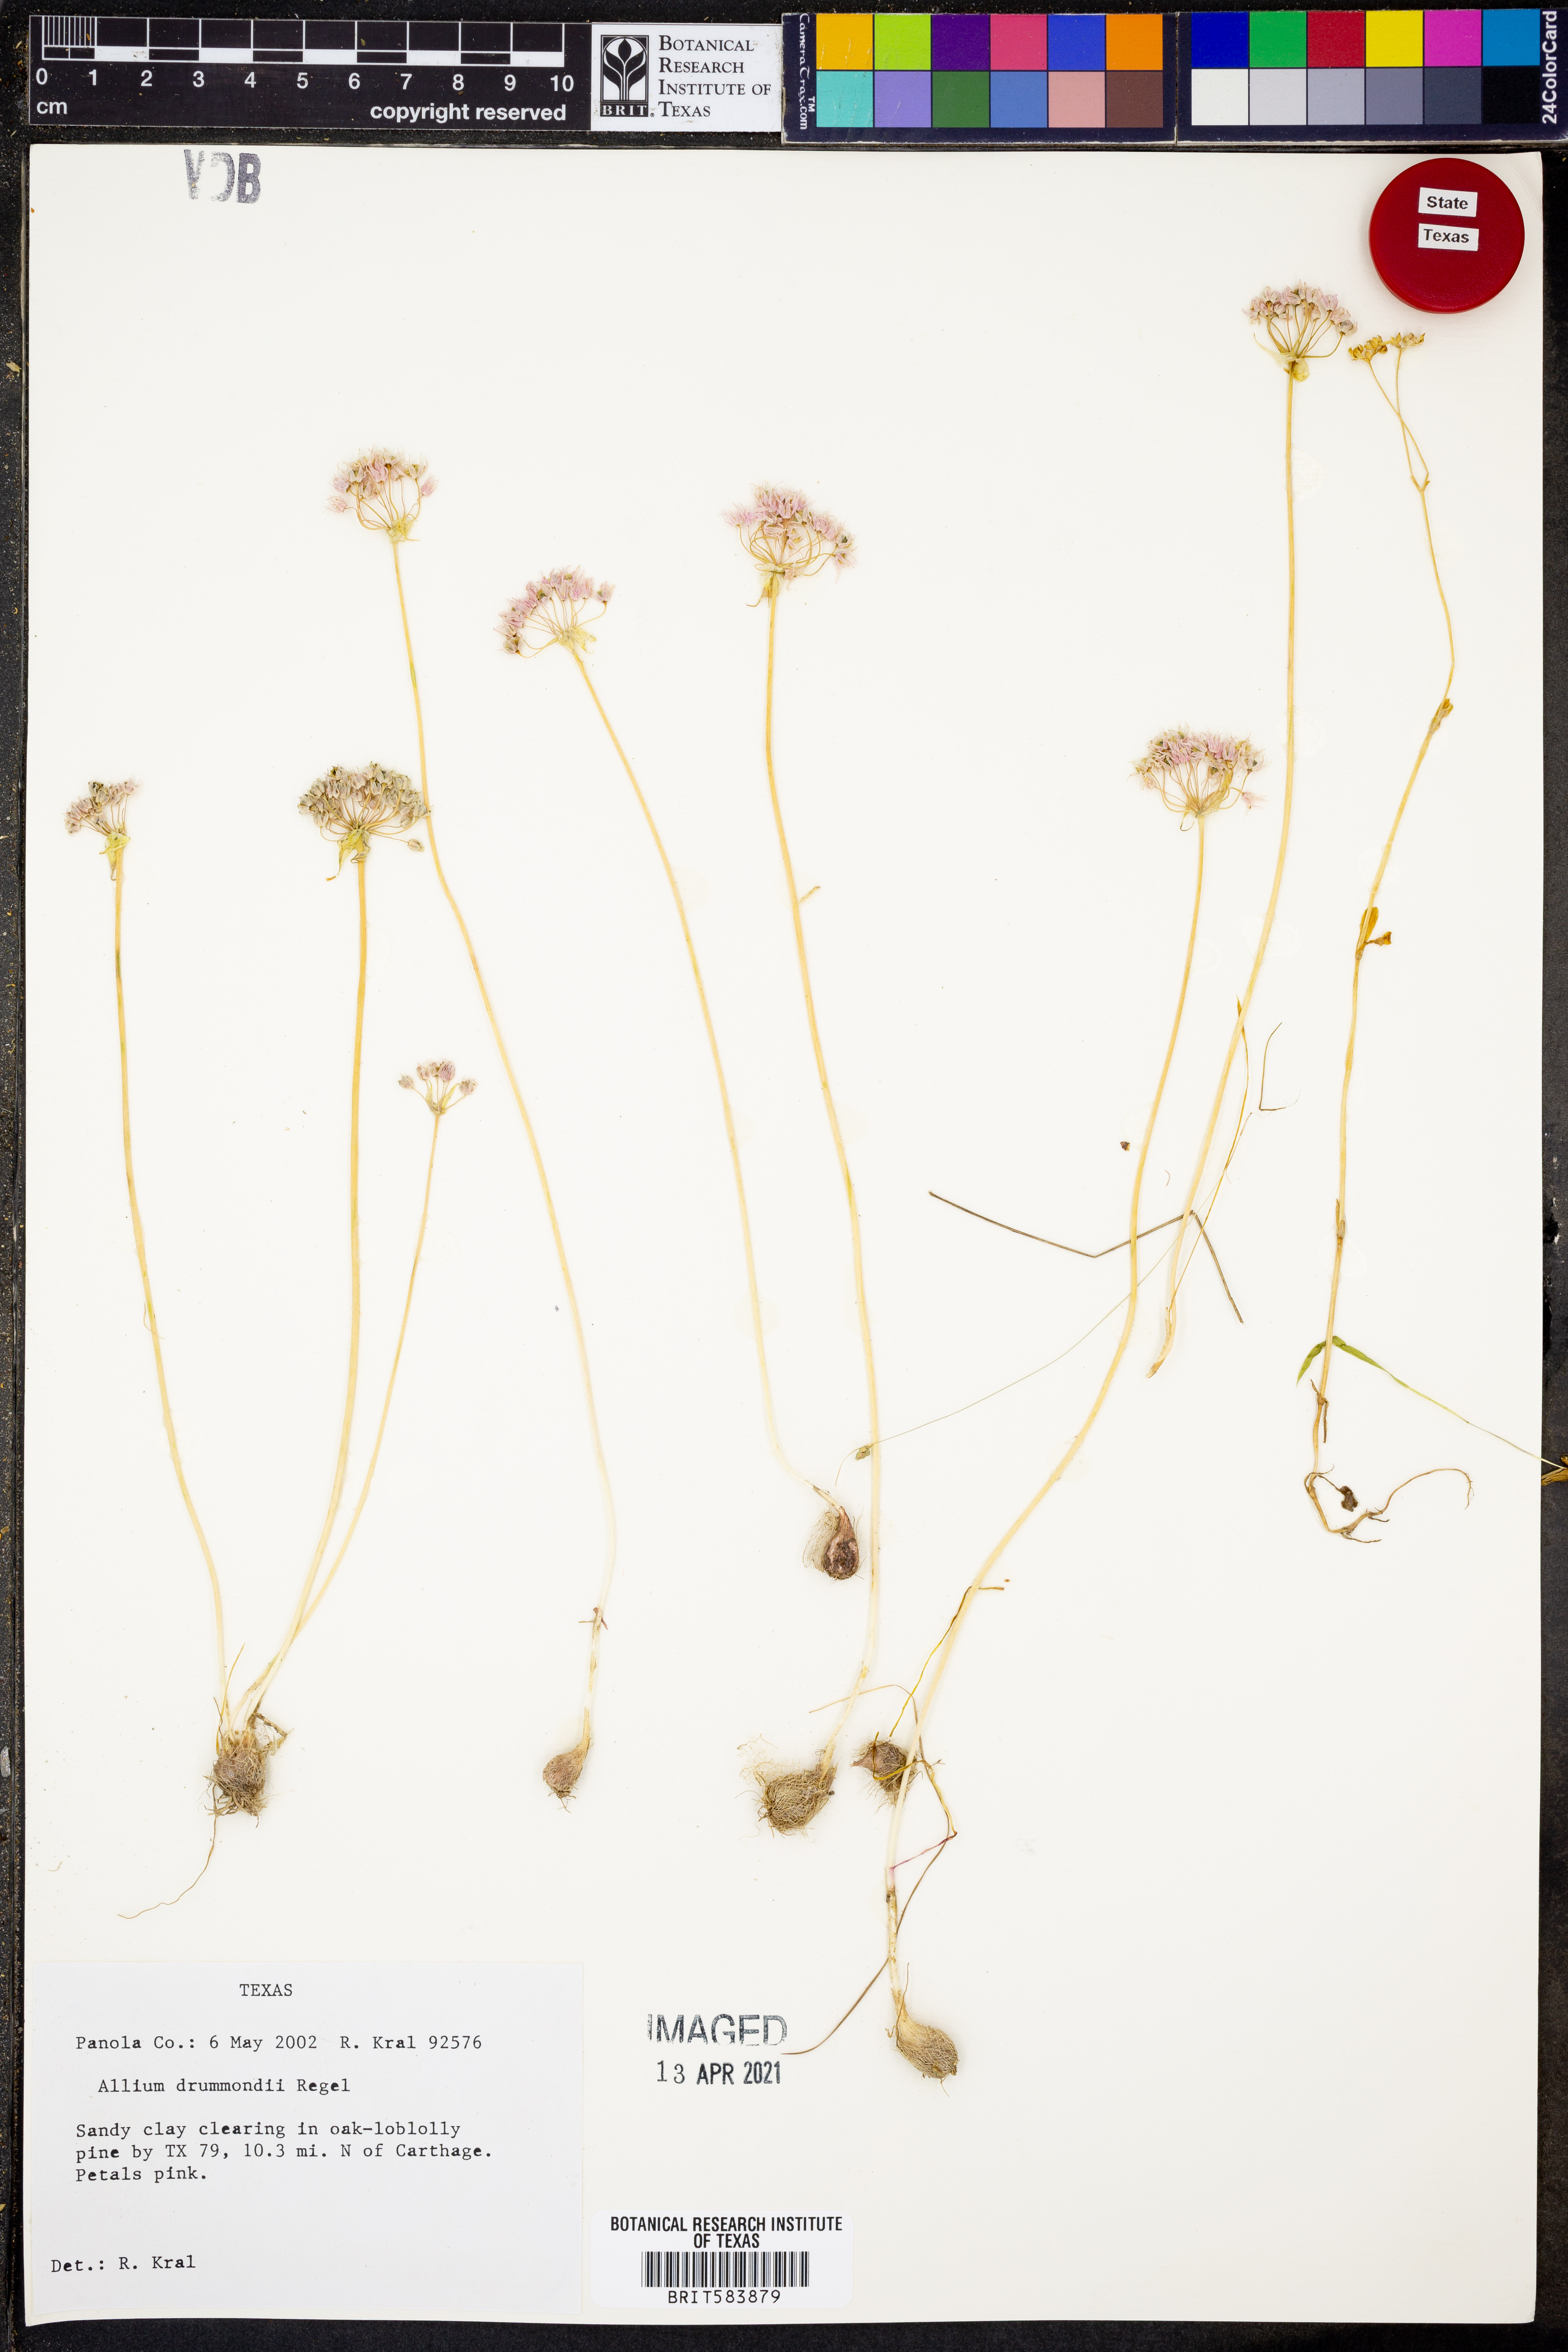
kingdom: Plantae
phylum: Tracheophyta
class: Liliopsida
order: Asparagales
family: Amaryllidaceae
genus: Allium
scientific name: Allium drummondii
